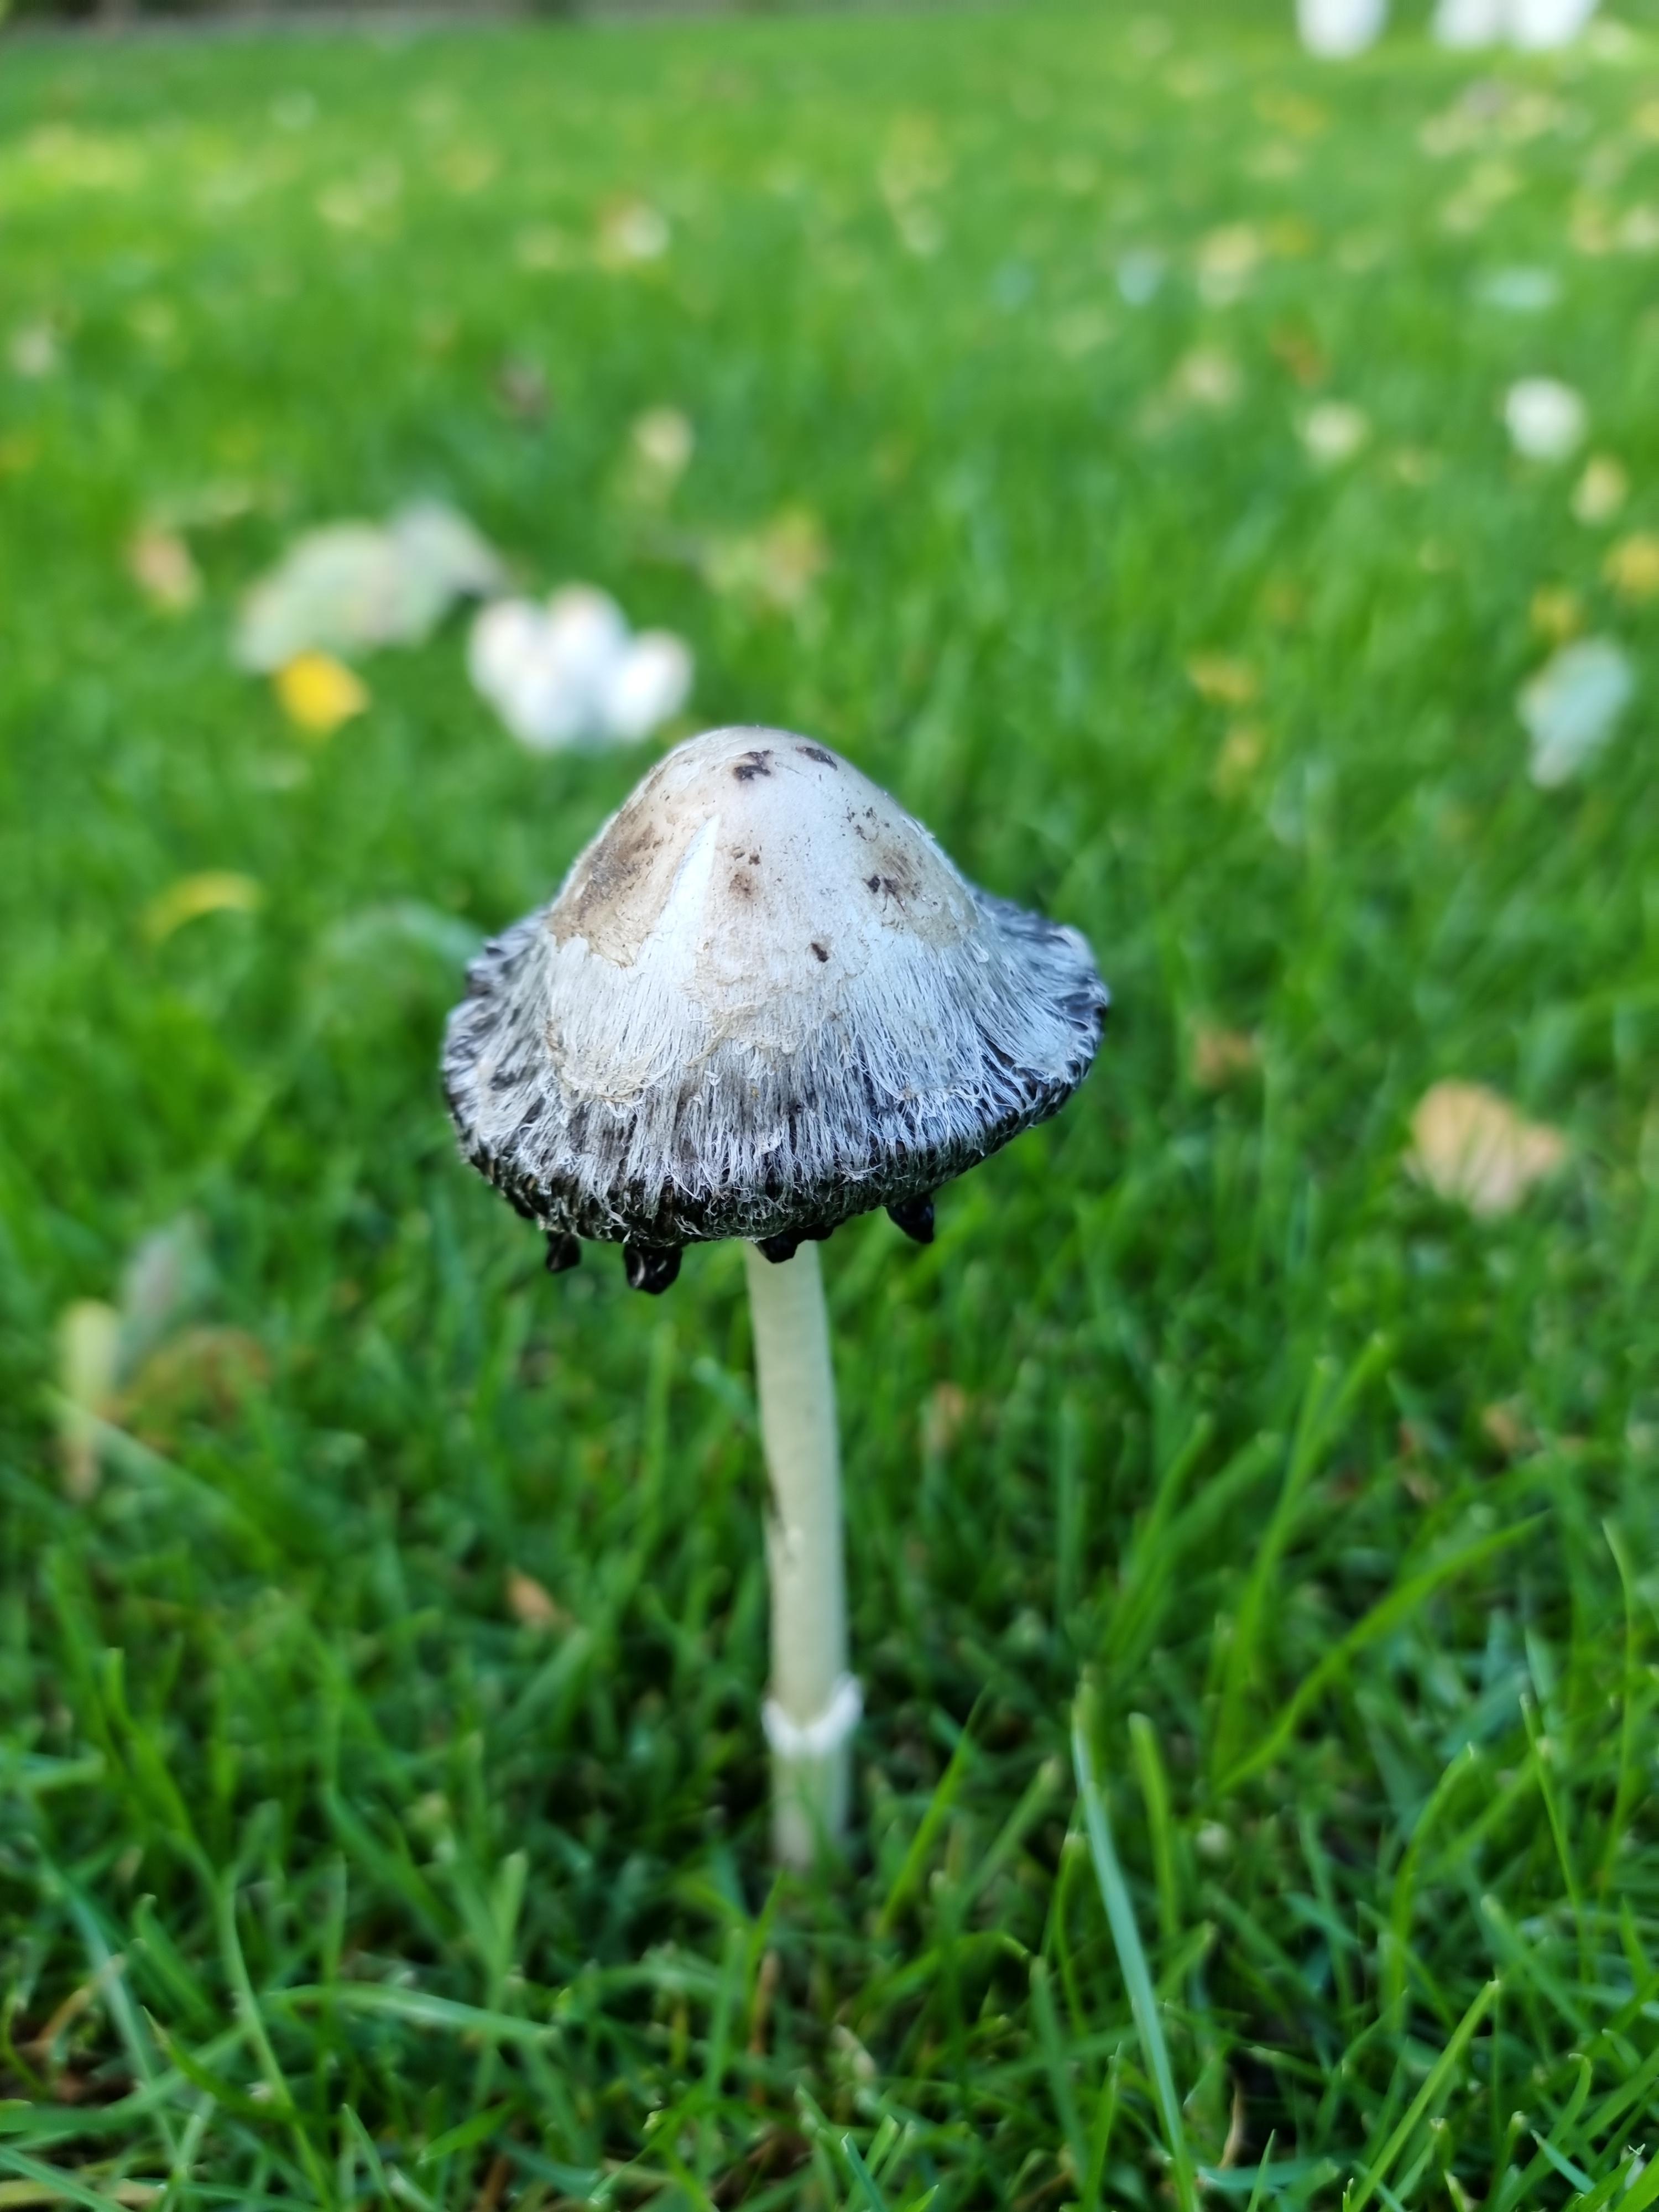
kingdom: Fungi
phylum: Basidiomycota
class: Agaricomycetes
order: Agaricales
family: Agaricaceae
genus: Coprinus
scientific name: Coprinus comatus
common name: stor parykhat
